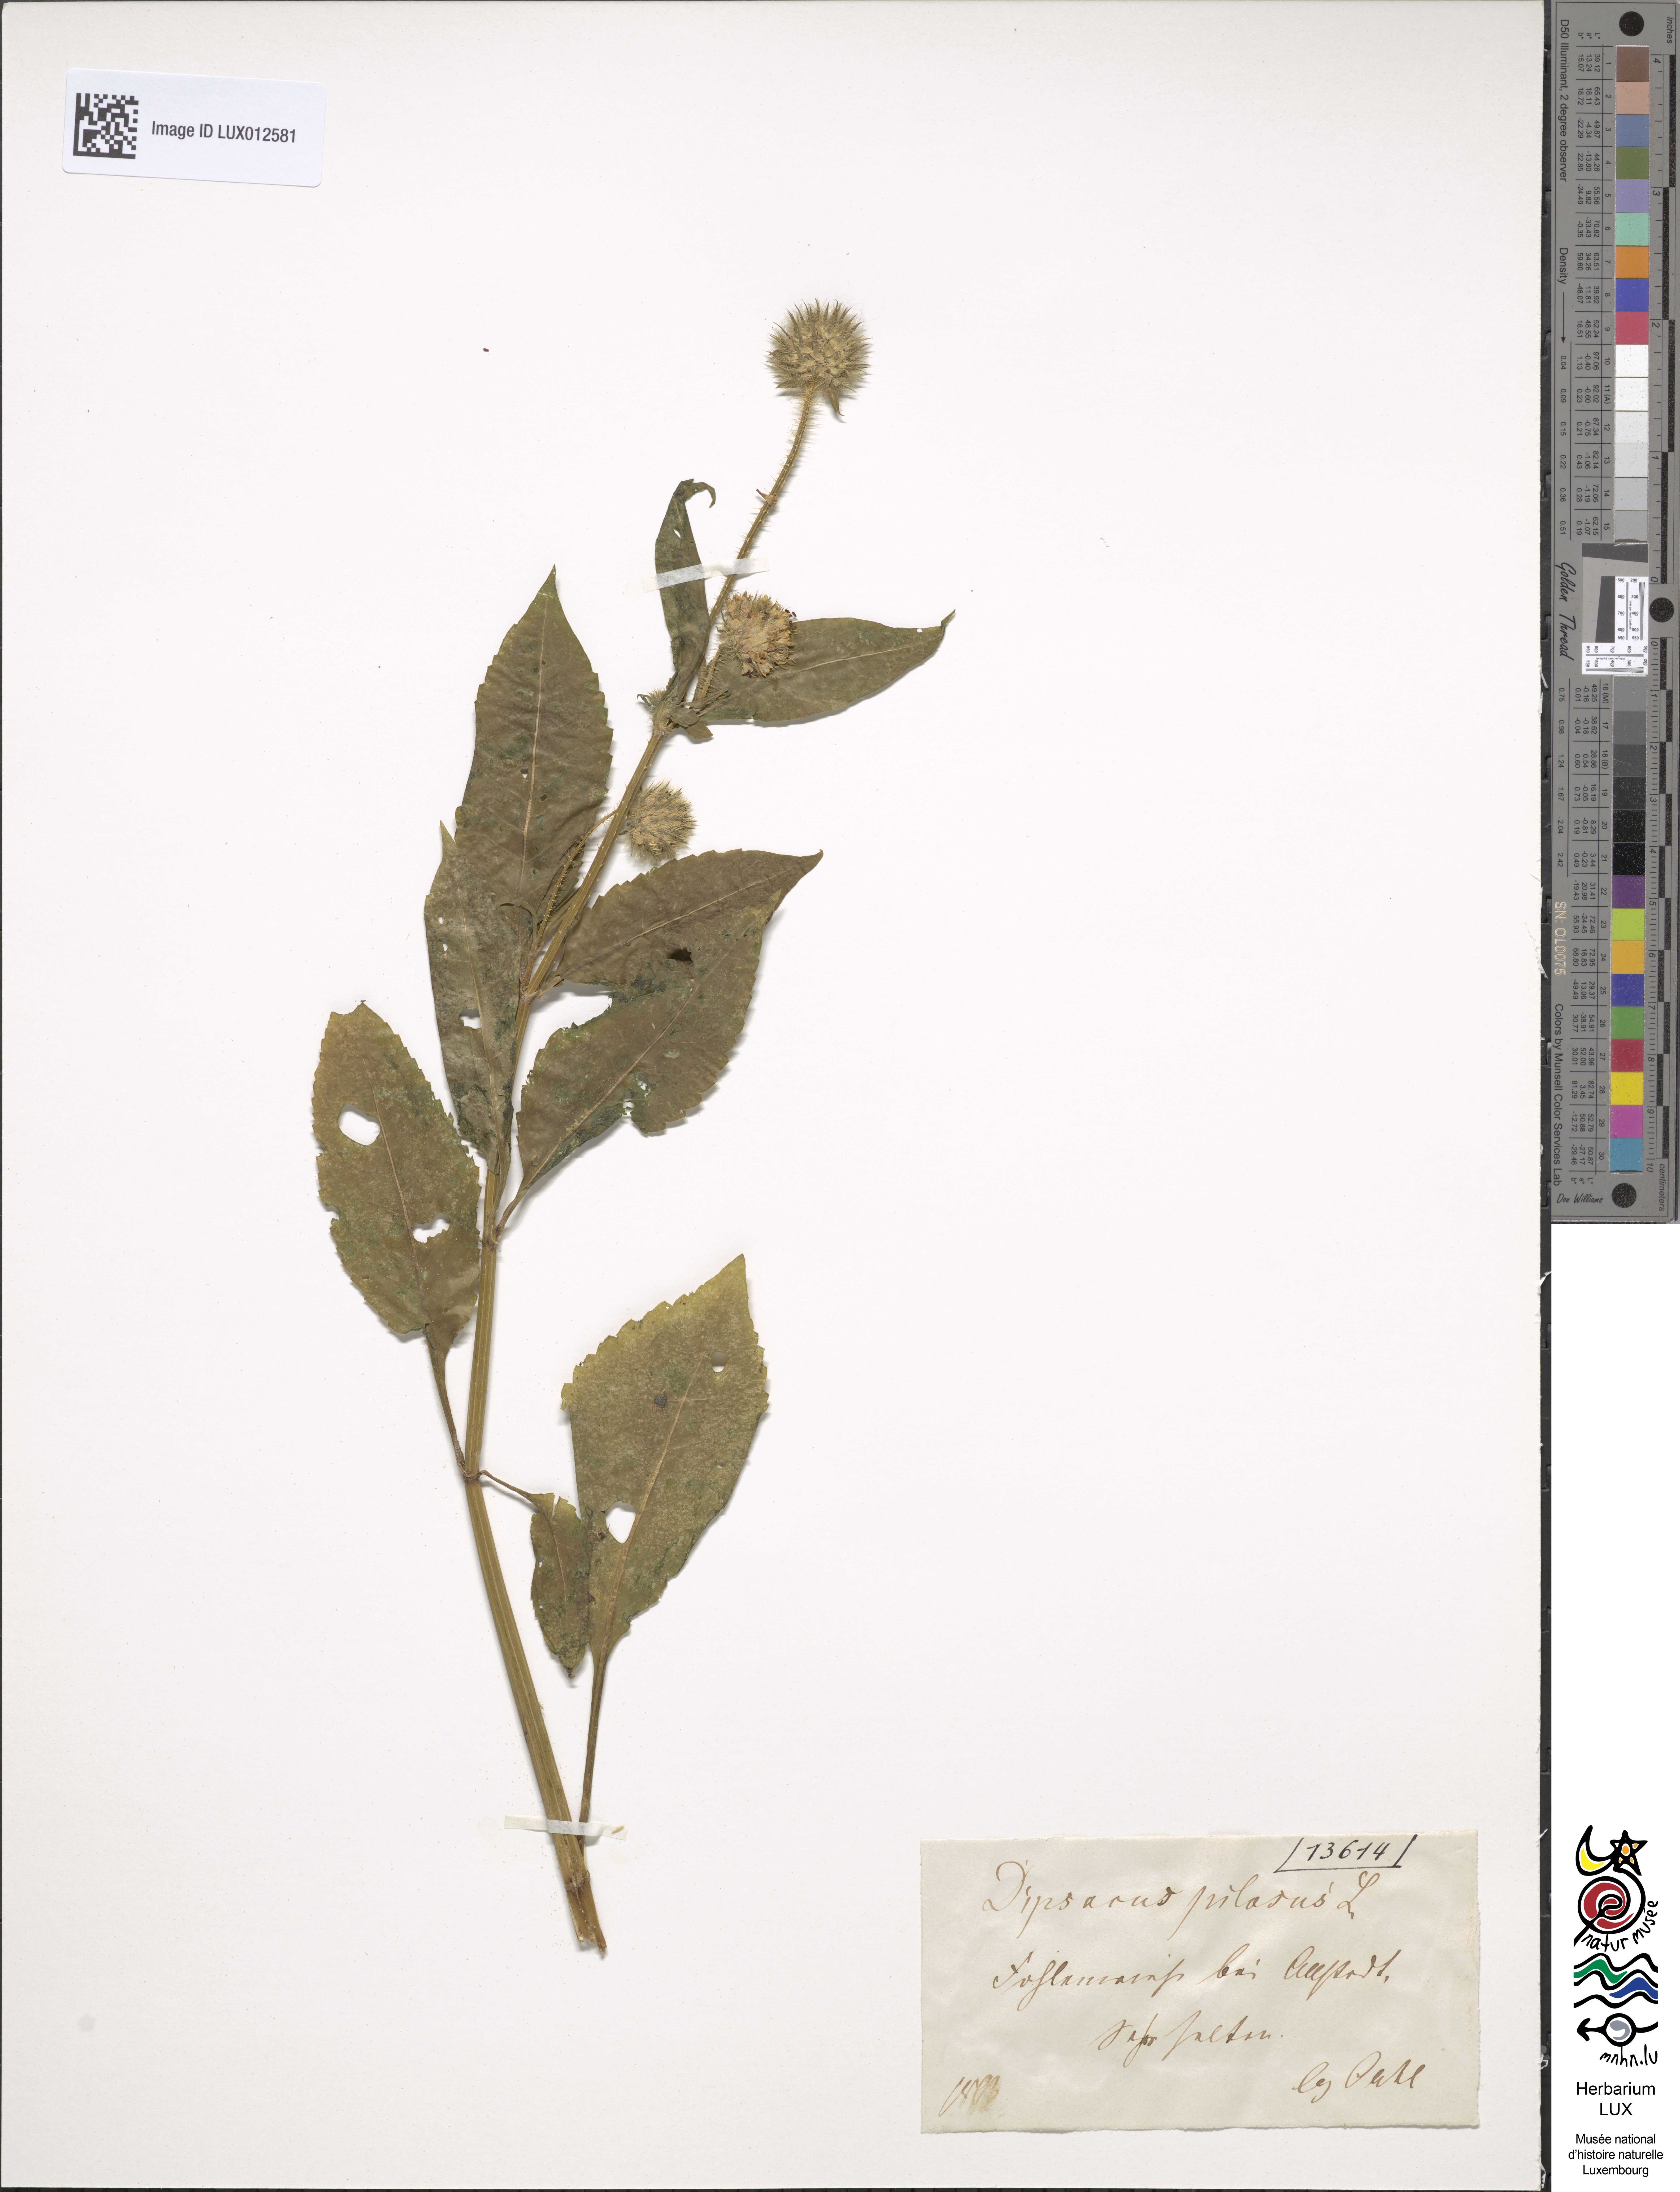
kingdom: Plantae
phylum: Tracheophyta
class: Magnoliopsida
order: Dipsacales
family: Caprifoliaceae
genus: Dipsacus
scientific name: Dipsacus pilosus
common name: Small teasel
